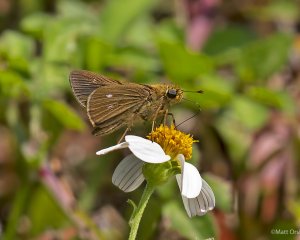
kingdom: Animalia
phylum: Arthropoda
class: Insecta
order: Lepidoptera
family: Hesperiidae
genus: Panoquina
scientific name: Panoquina panoquinoides
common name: Obscure Skipper
